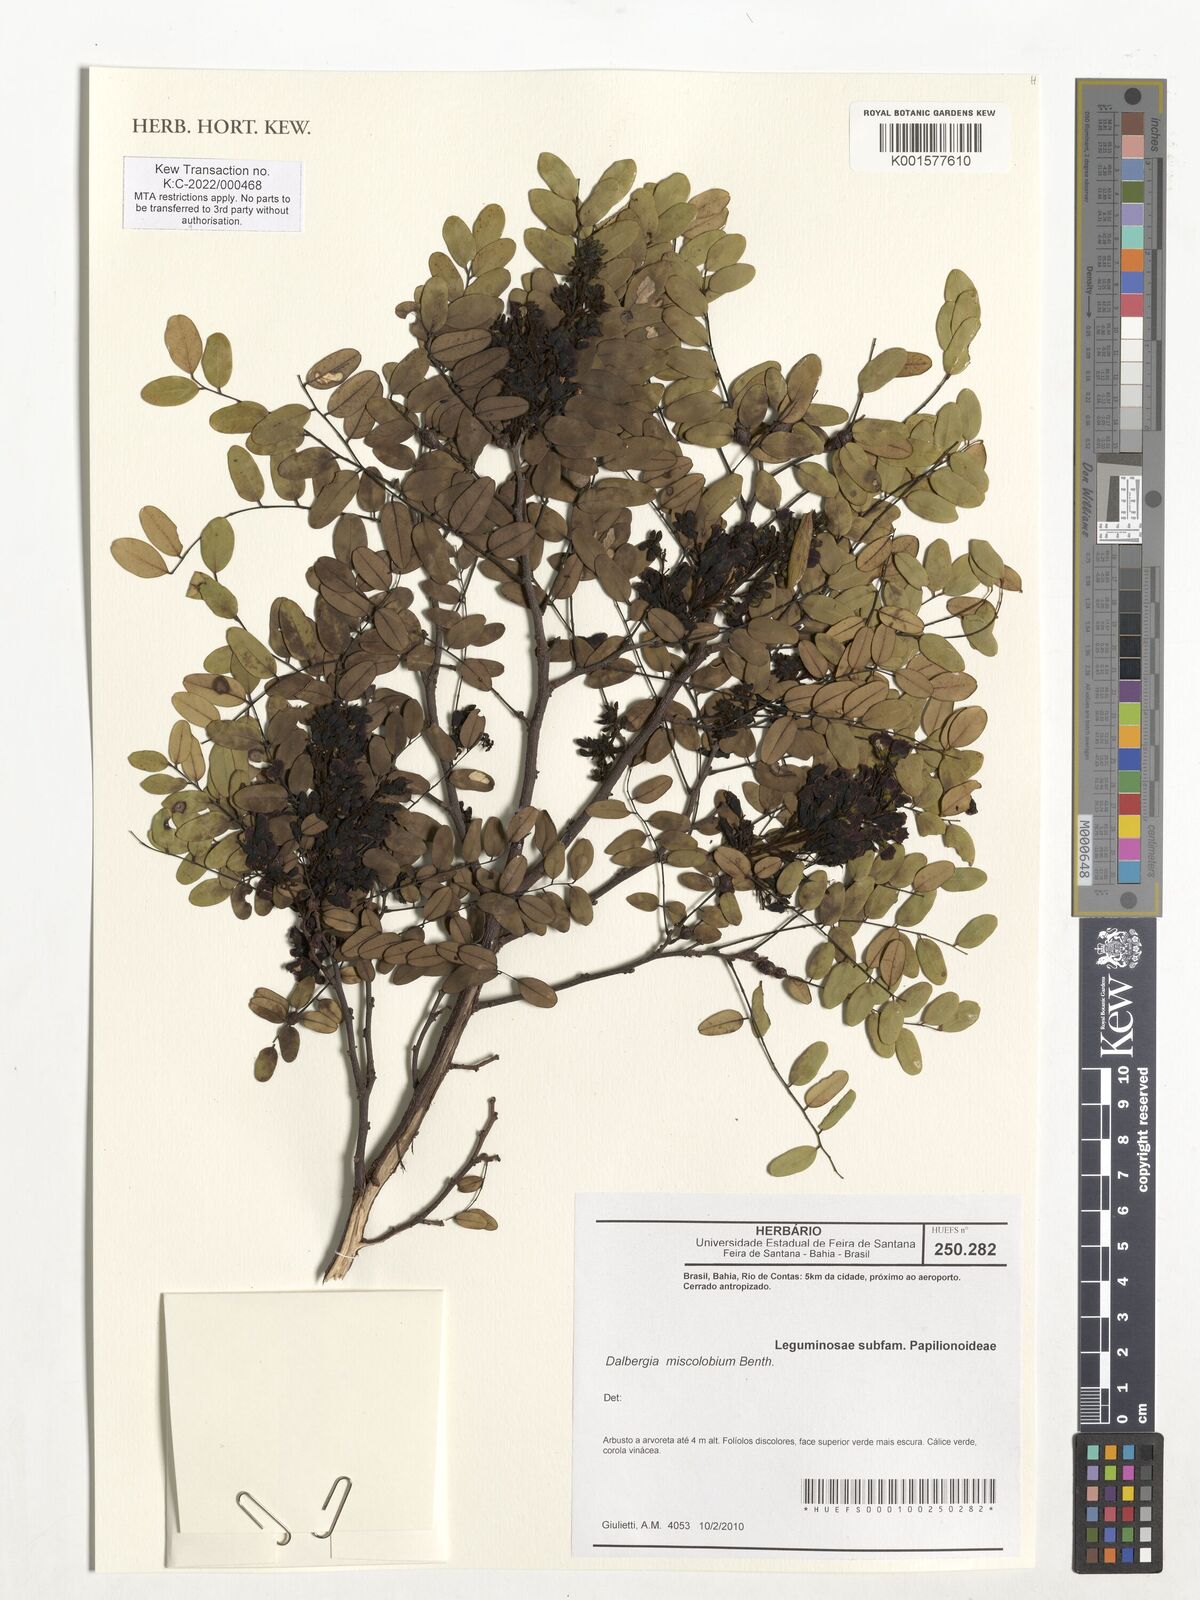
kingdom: Plantae
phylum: Tracheophyta
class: Magnoliopsida
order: Fabales
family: Fabaceae
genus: Dalbergia
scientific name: Dalbergia miscolobium
